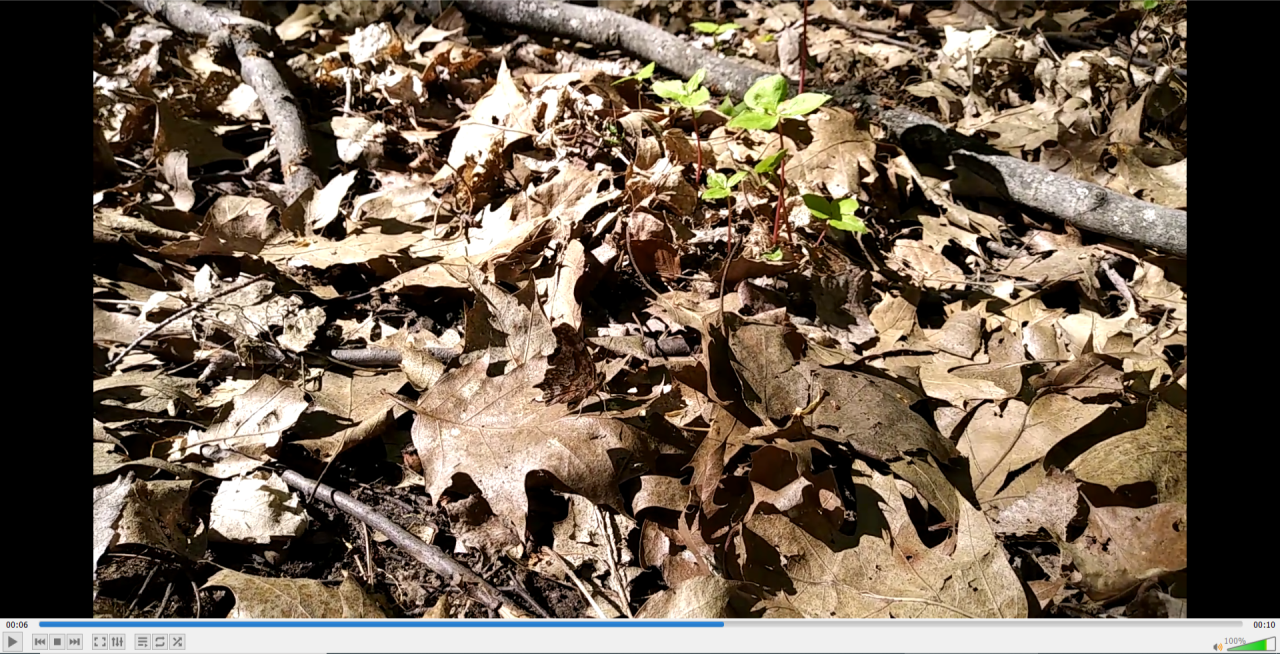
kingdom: Animalia
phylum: Arthropoda
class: Insecta
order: Lepidoptera
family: Nymphalidae
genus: Polygonia
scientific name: Polygonia comma
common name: Eastern Comma
